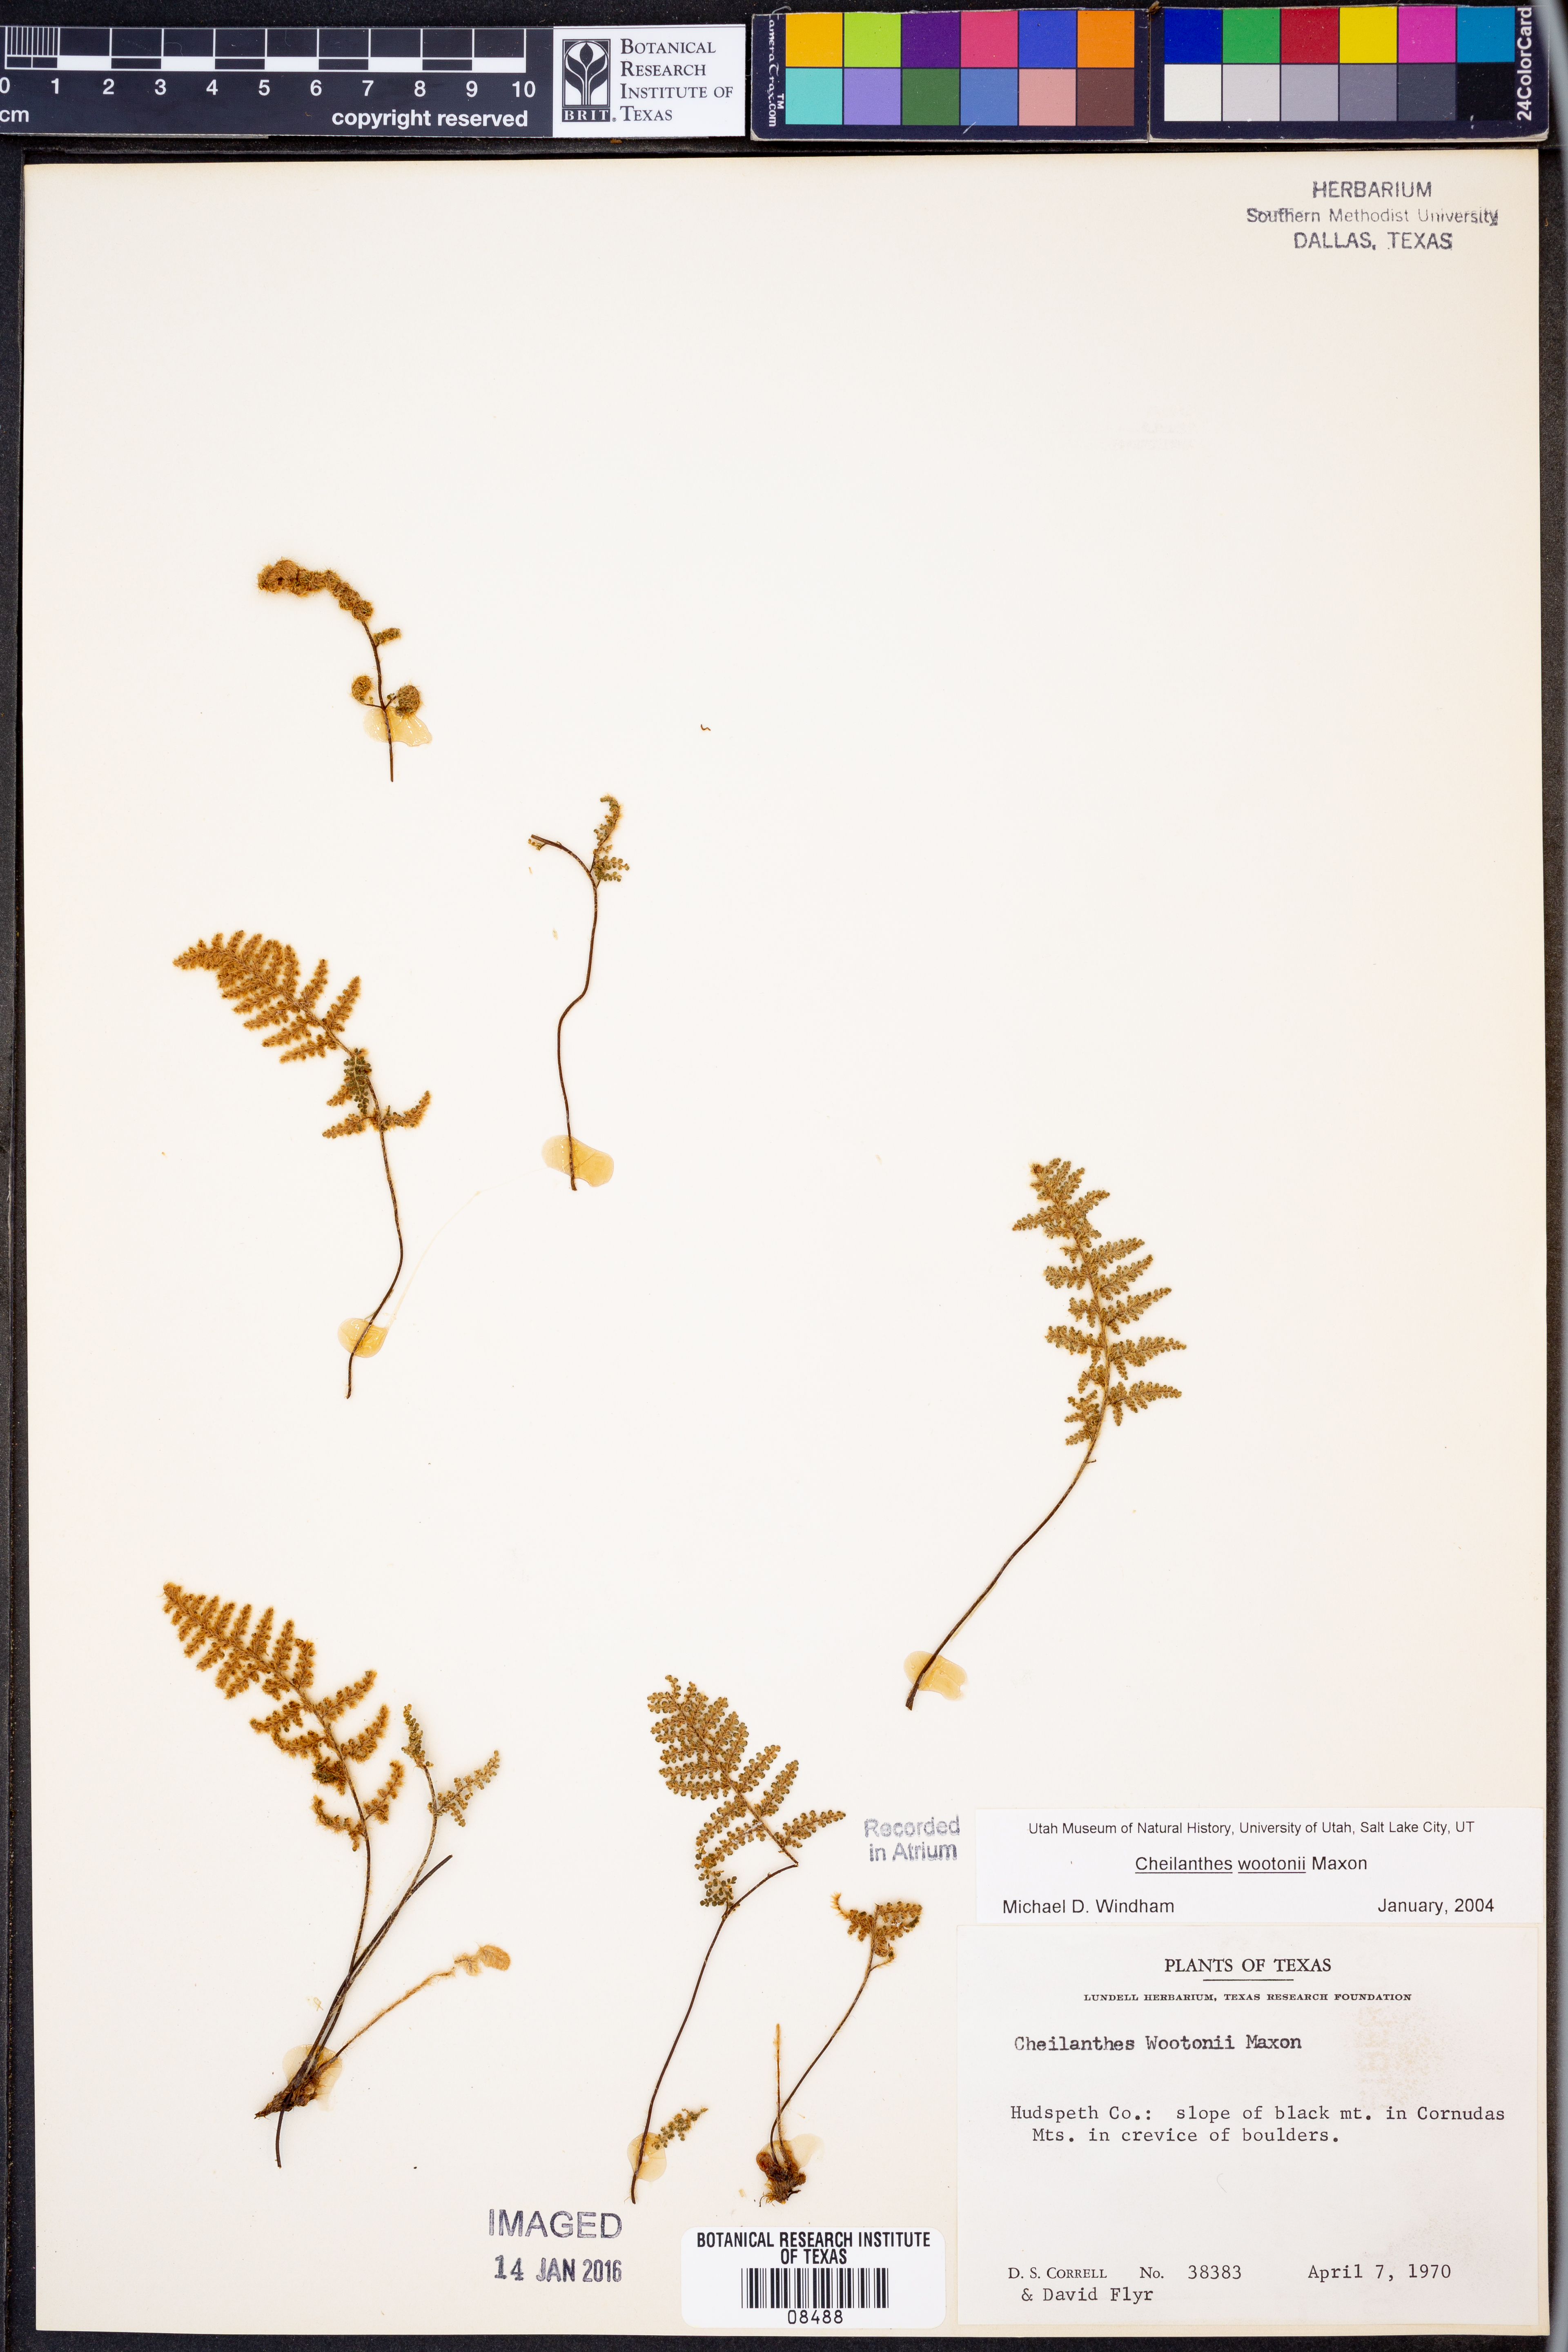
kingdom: Plantae
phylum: Tracheophyta
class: Polypodiopsida
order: Polypodiales
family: Pteridaceae
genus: Myriopteris
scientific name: Myriopteris wootonii
